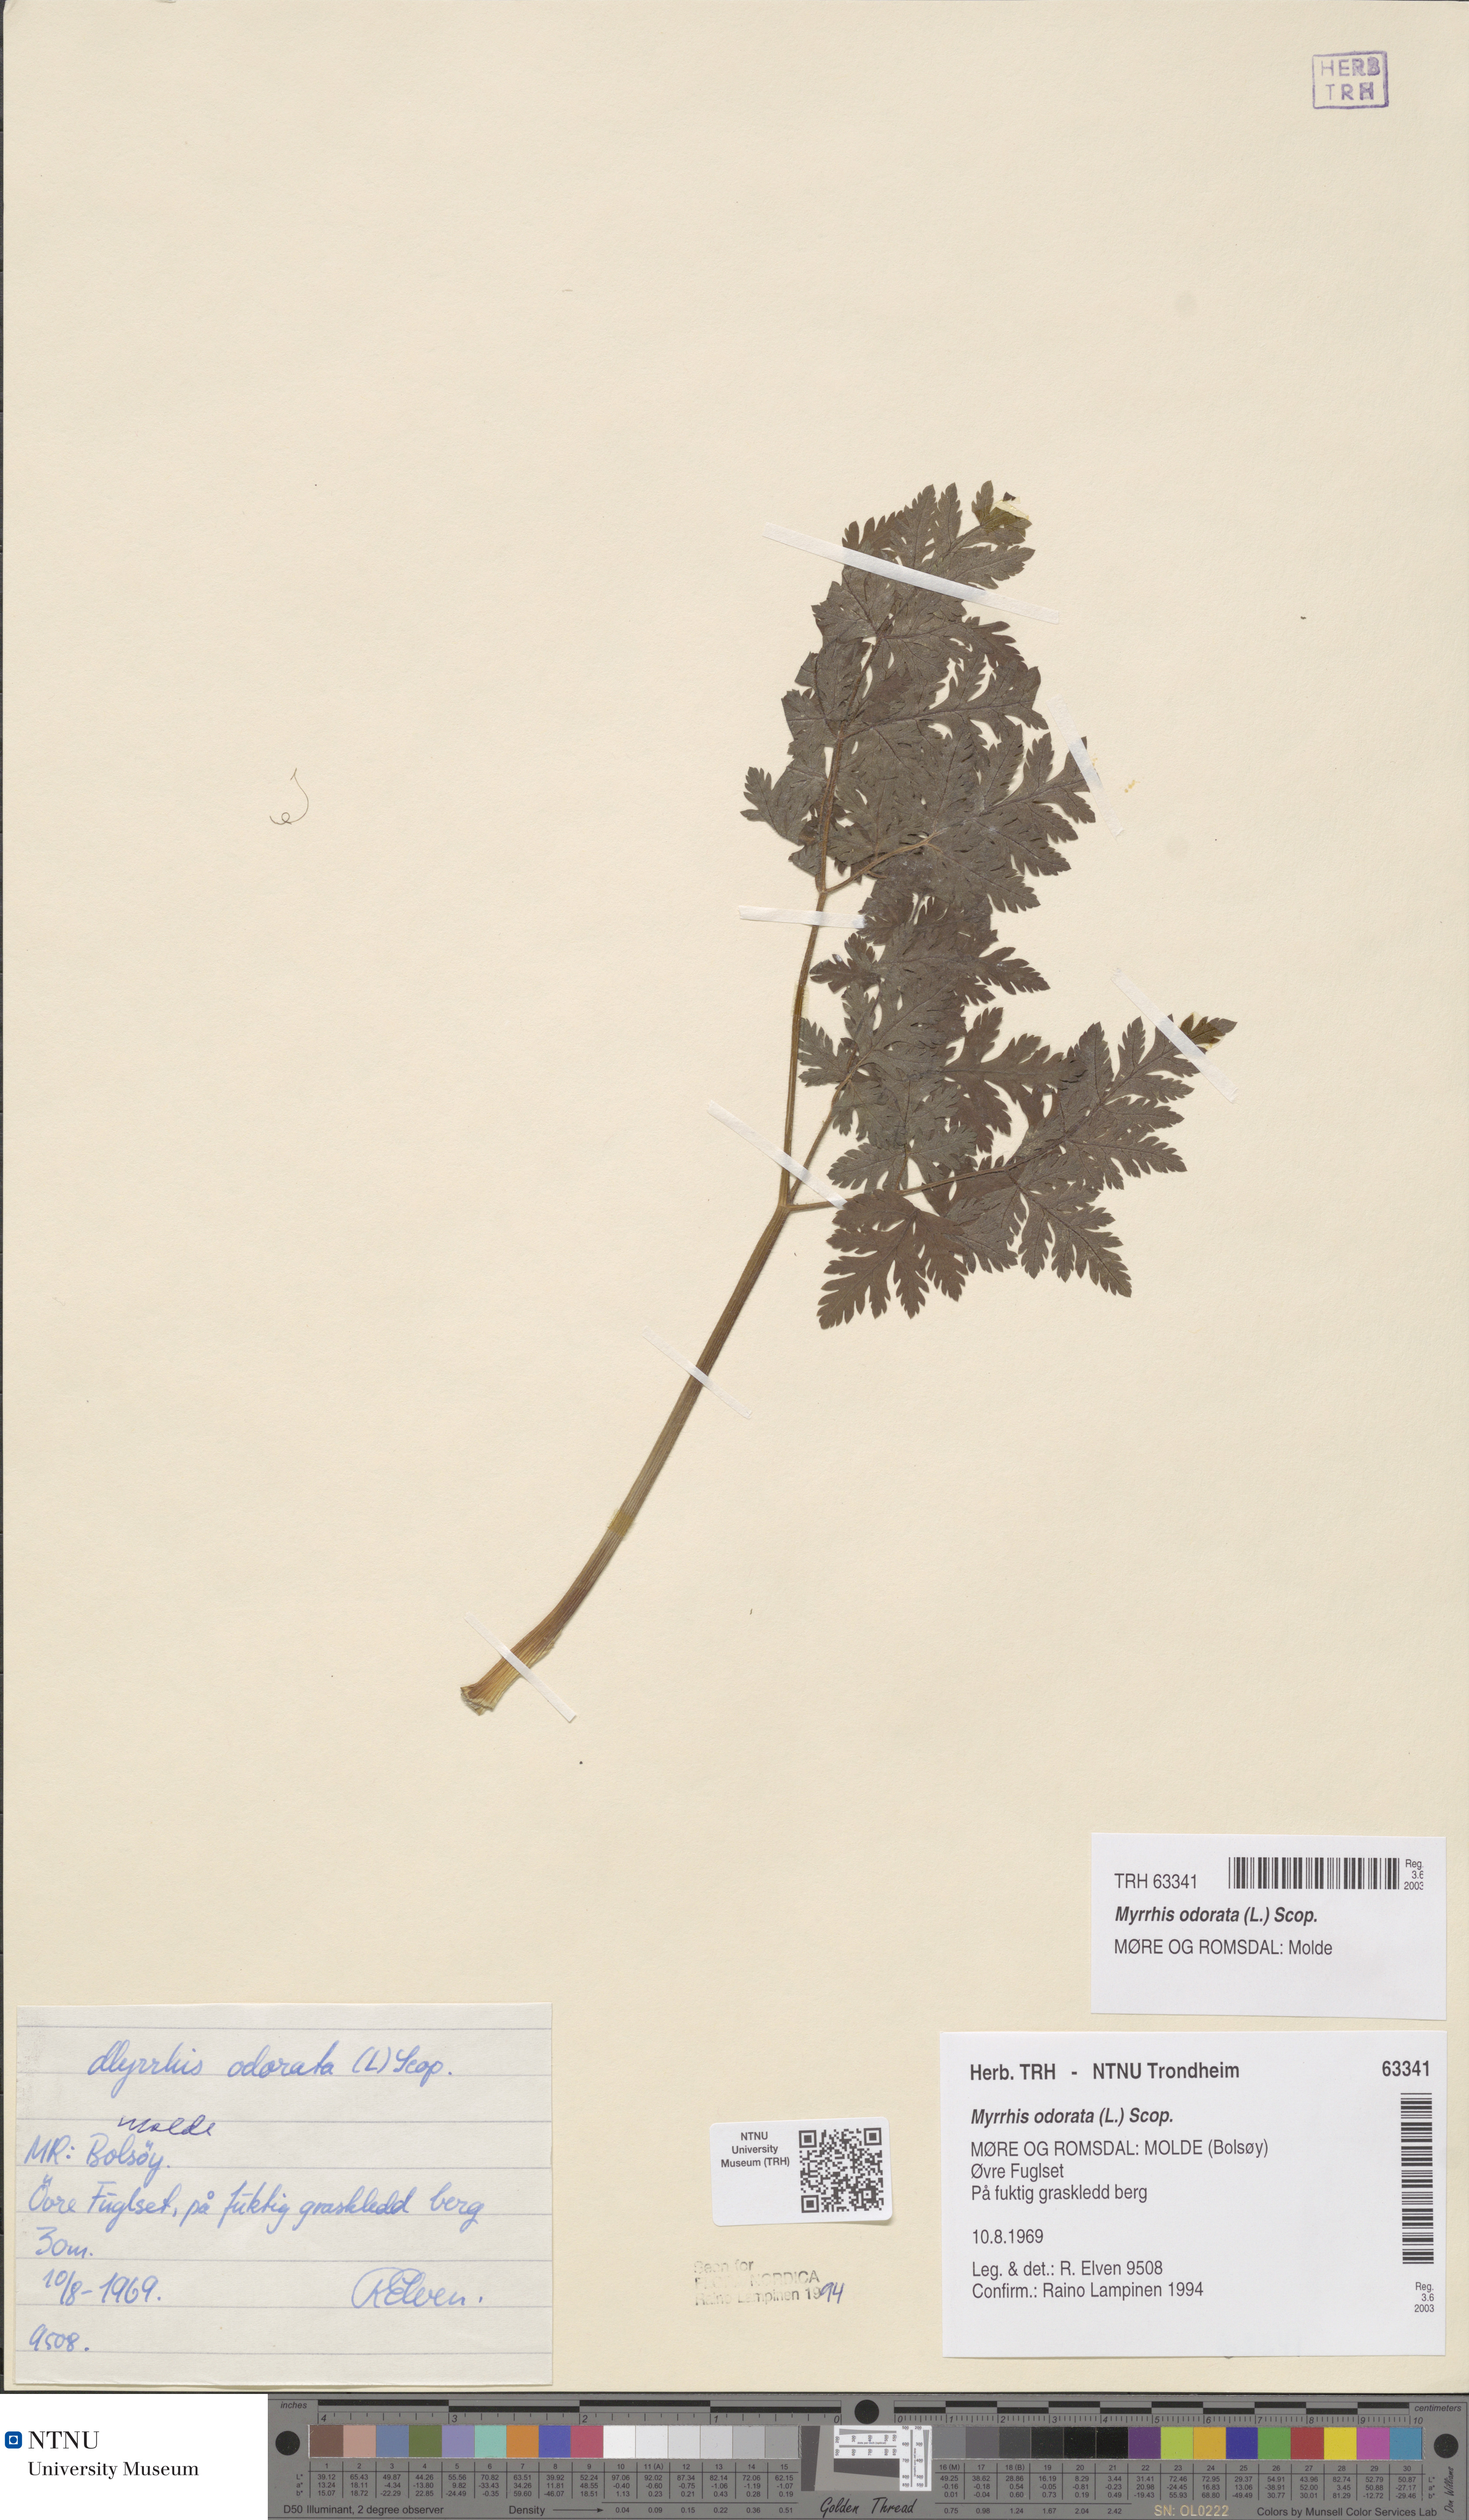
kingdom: Plantae
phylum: Tracheophyta
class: Magnoliopsida
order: Apiales
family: Apiaceae
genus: Myrrhis
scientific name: Myrrhis odorata
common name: Sweet cicely
